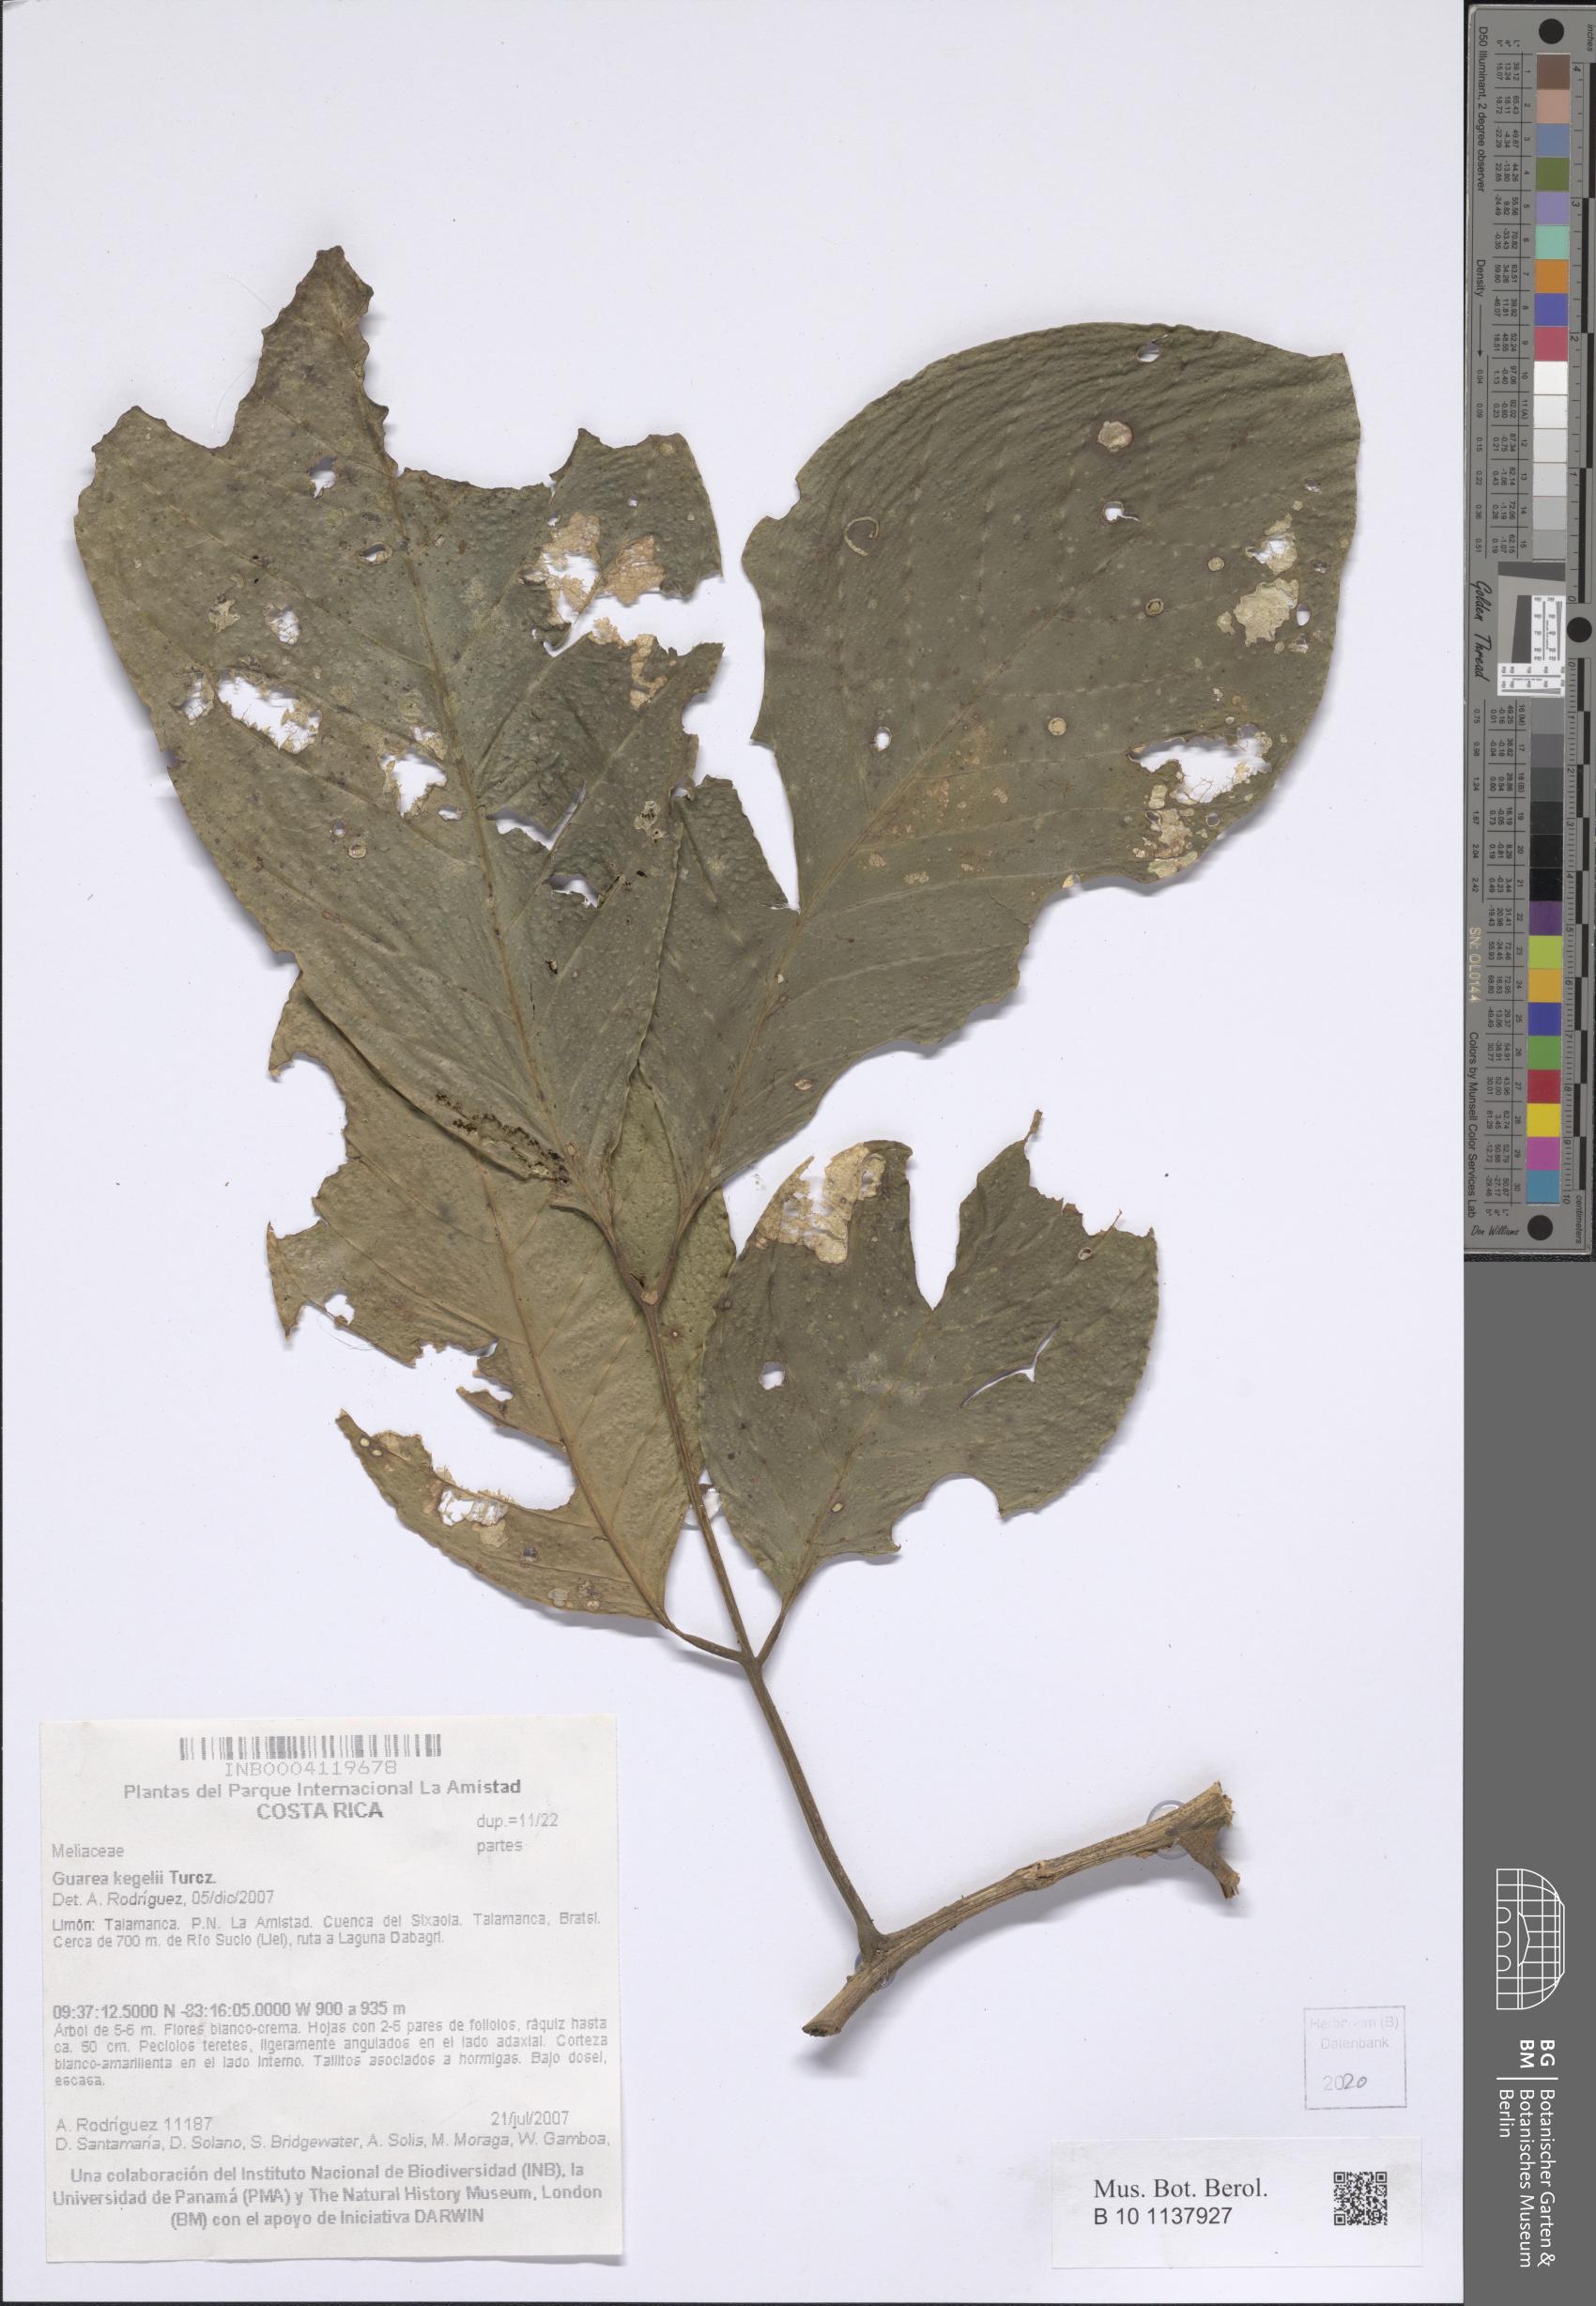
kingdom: Plantae
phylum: Tracheophyta
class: Magnoliopsida
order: Sapindales
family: Meliaceae
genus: Guarea
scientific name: Guarea glabra
